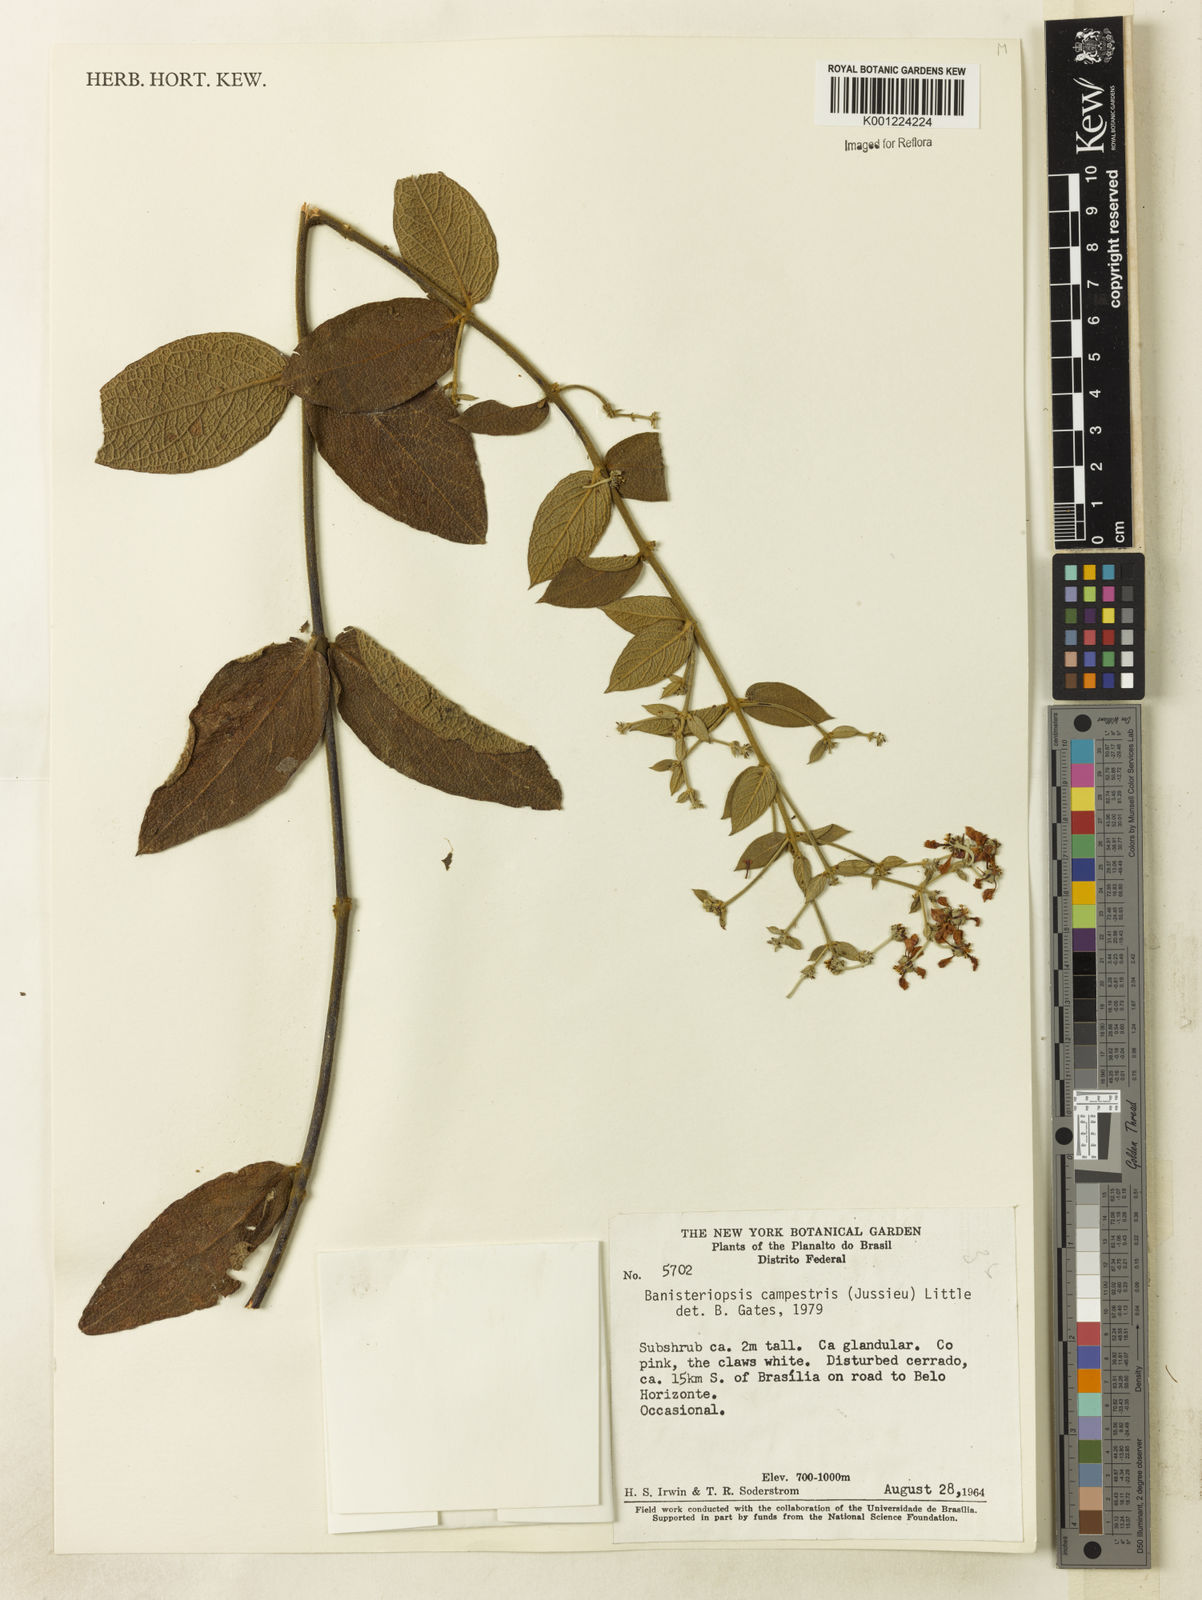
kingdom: Plantae
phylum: Tracheophyta
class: Magnoliopsida
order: Malpighiales
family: Malpighiaceae
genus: Banisteriopsis
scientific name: Banisteriopsis campestris
